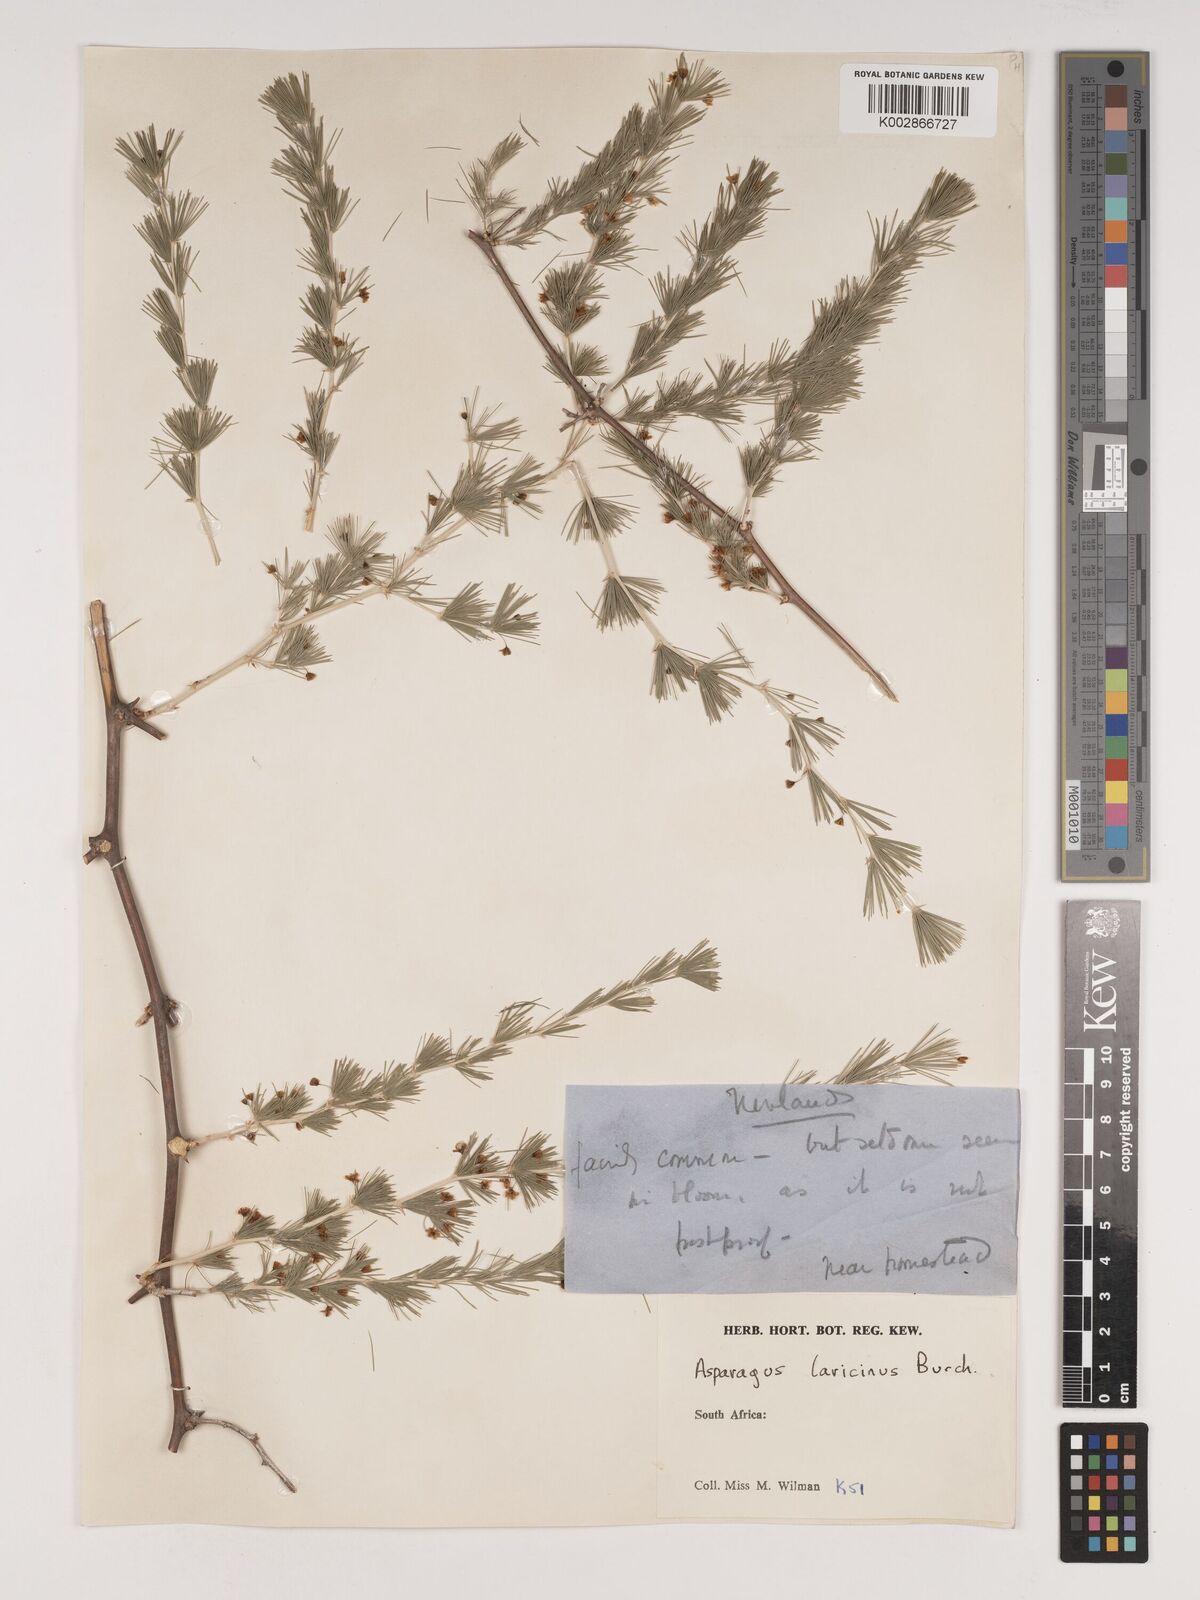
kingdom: Plantae
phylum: Tracheophyta
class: Liliopsida
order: Asparagales
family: Asparagaceae
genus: Asparagus
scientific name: Asparagus laricinus
